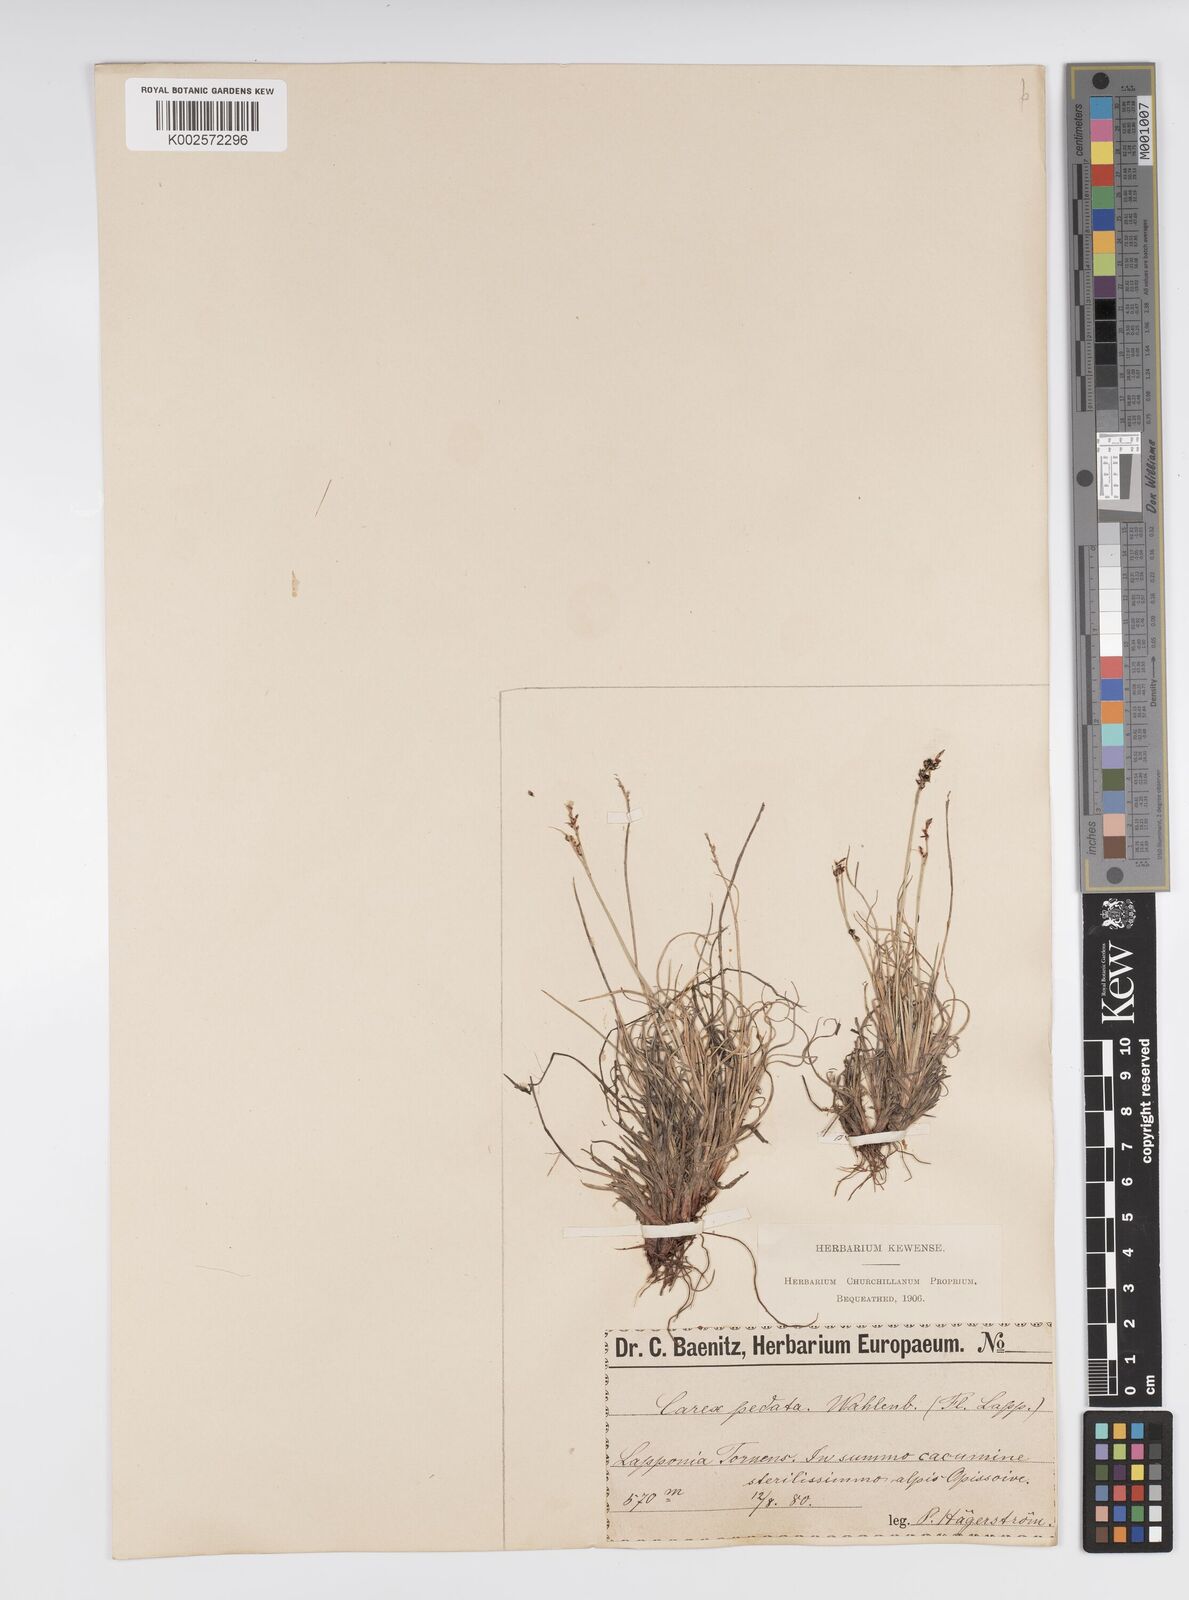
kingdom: Plantae
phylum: Tracheophyta
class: Liliopsida
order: Poales
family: Cyperaceae
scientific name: Cyperaceae
